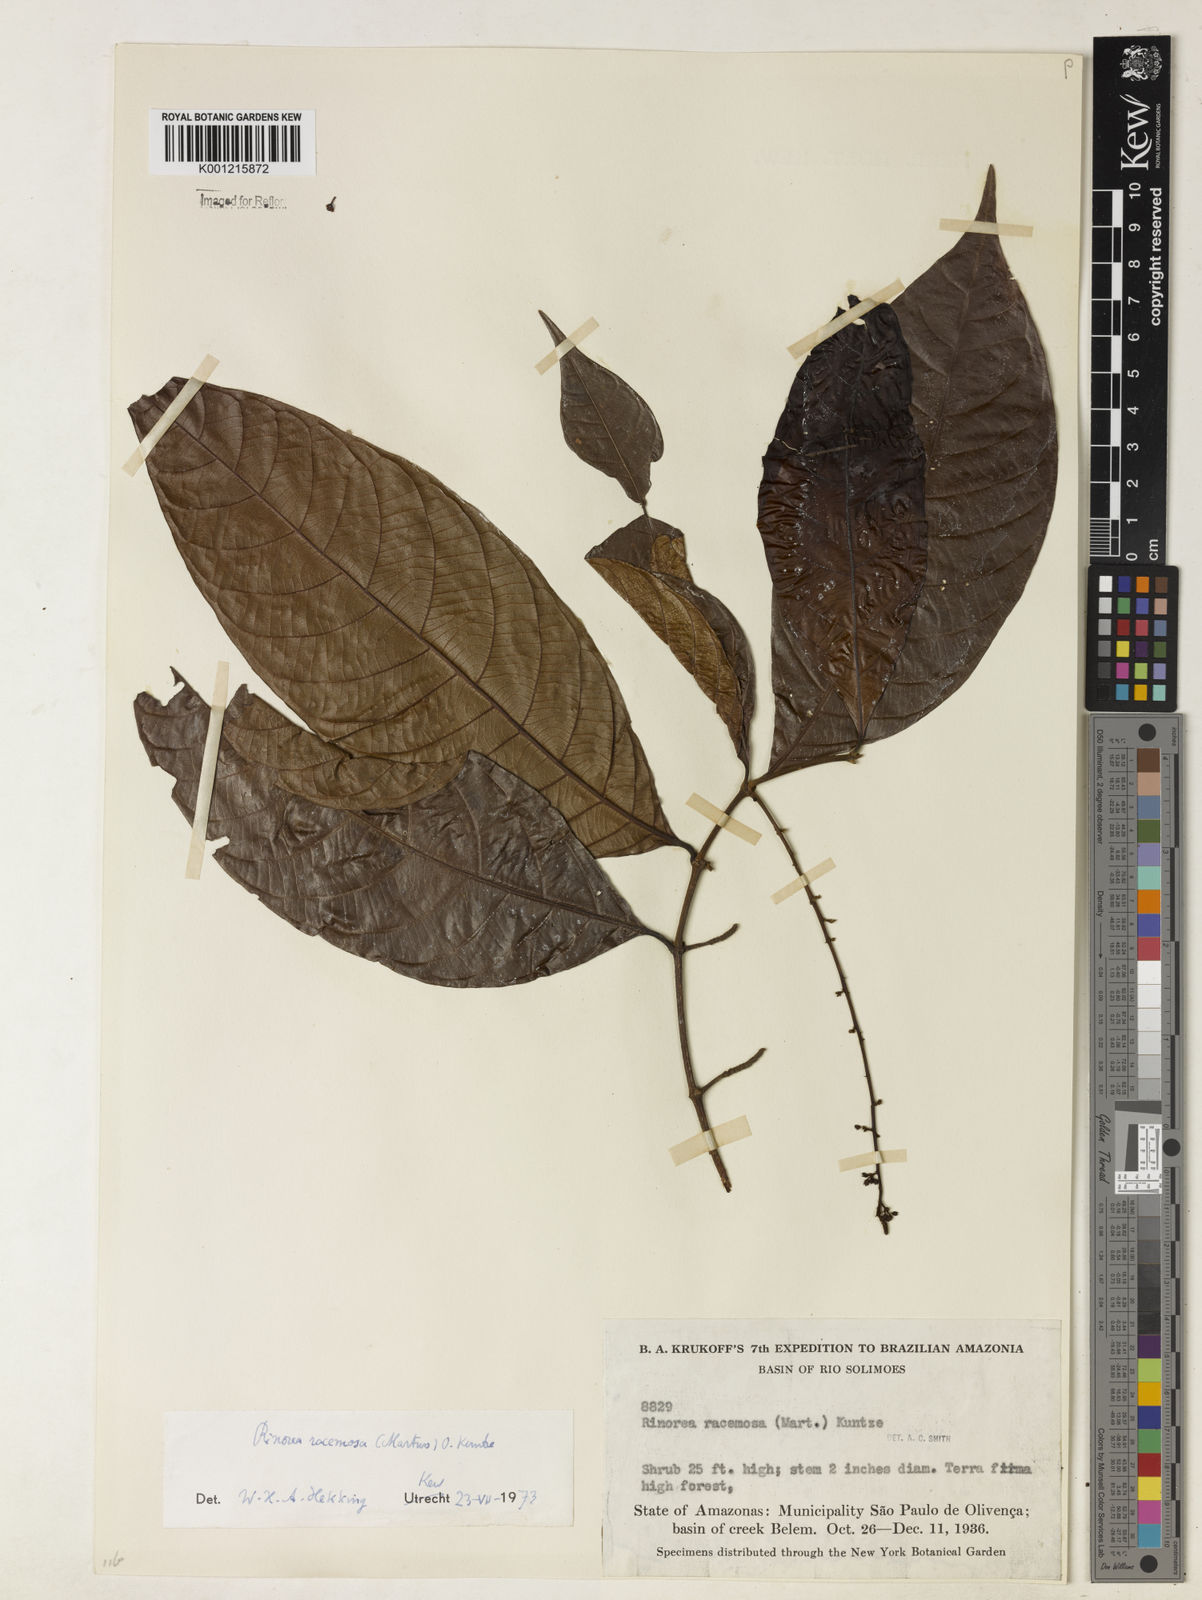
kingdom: Plantae
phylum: Tracheophyta
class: Magnoliopsida
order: Malpighiales
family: Violaceae
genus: Rinorea
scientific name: Rinorea racemosa
